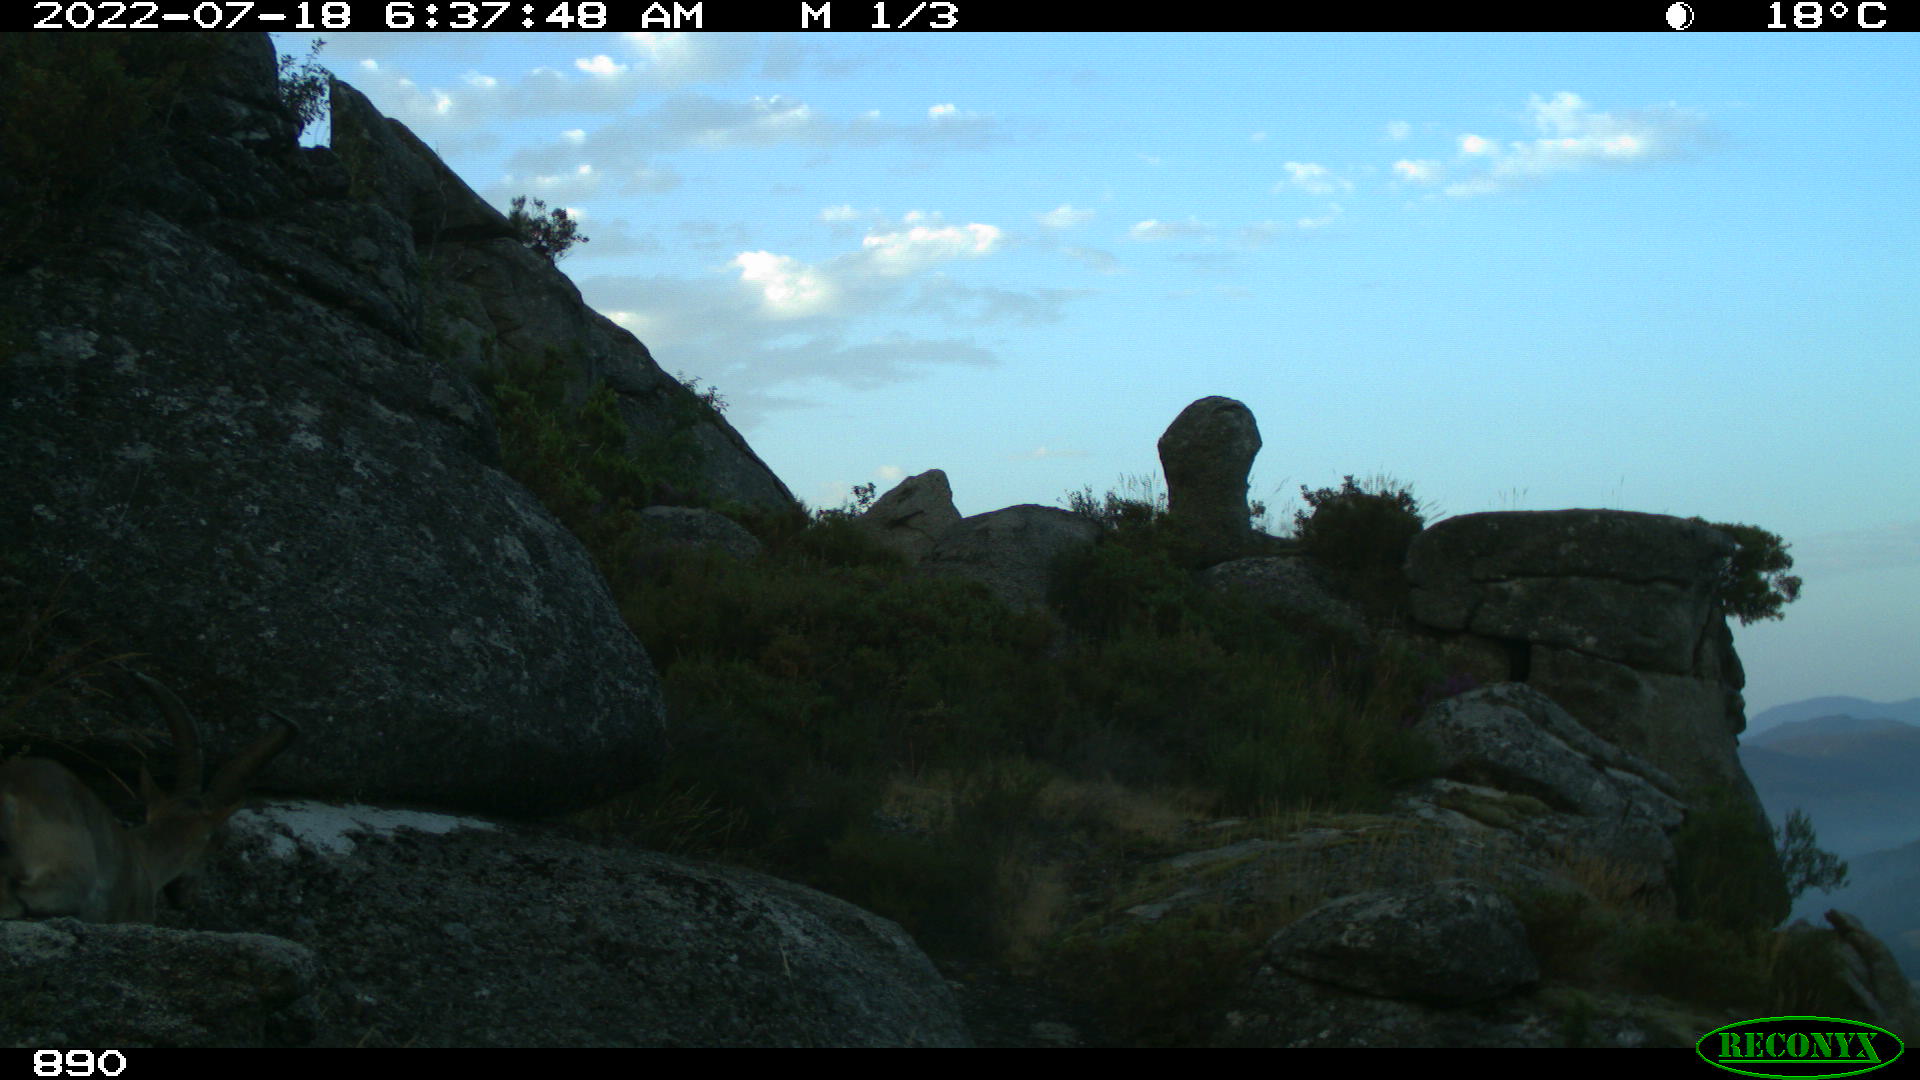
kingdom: Animalia
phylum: Chordata
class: Mammalia
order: Artiodactyla
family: Bovidae
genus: Capra
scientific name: Capra pyrenaica
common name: Spanish ibex
